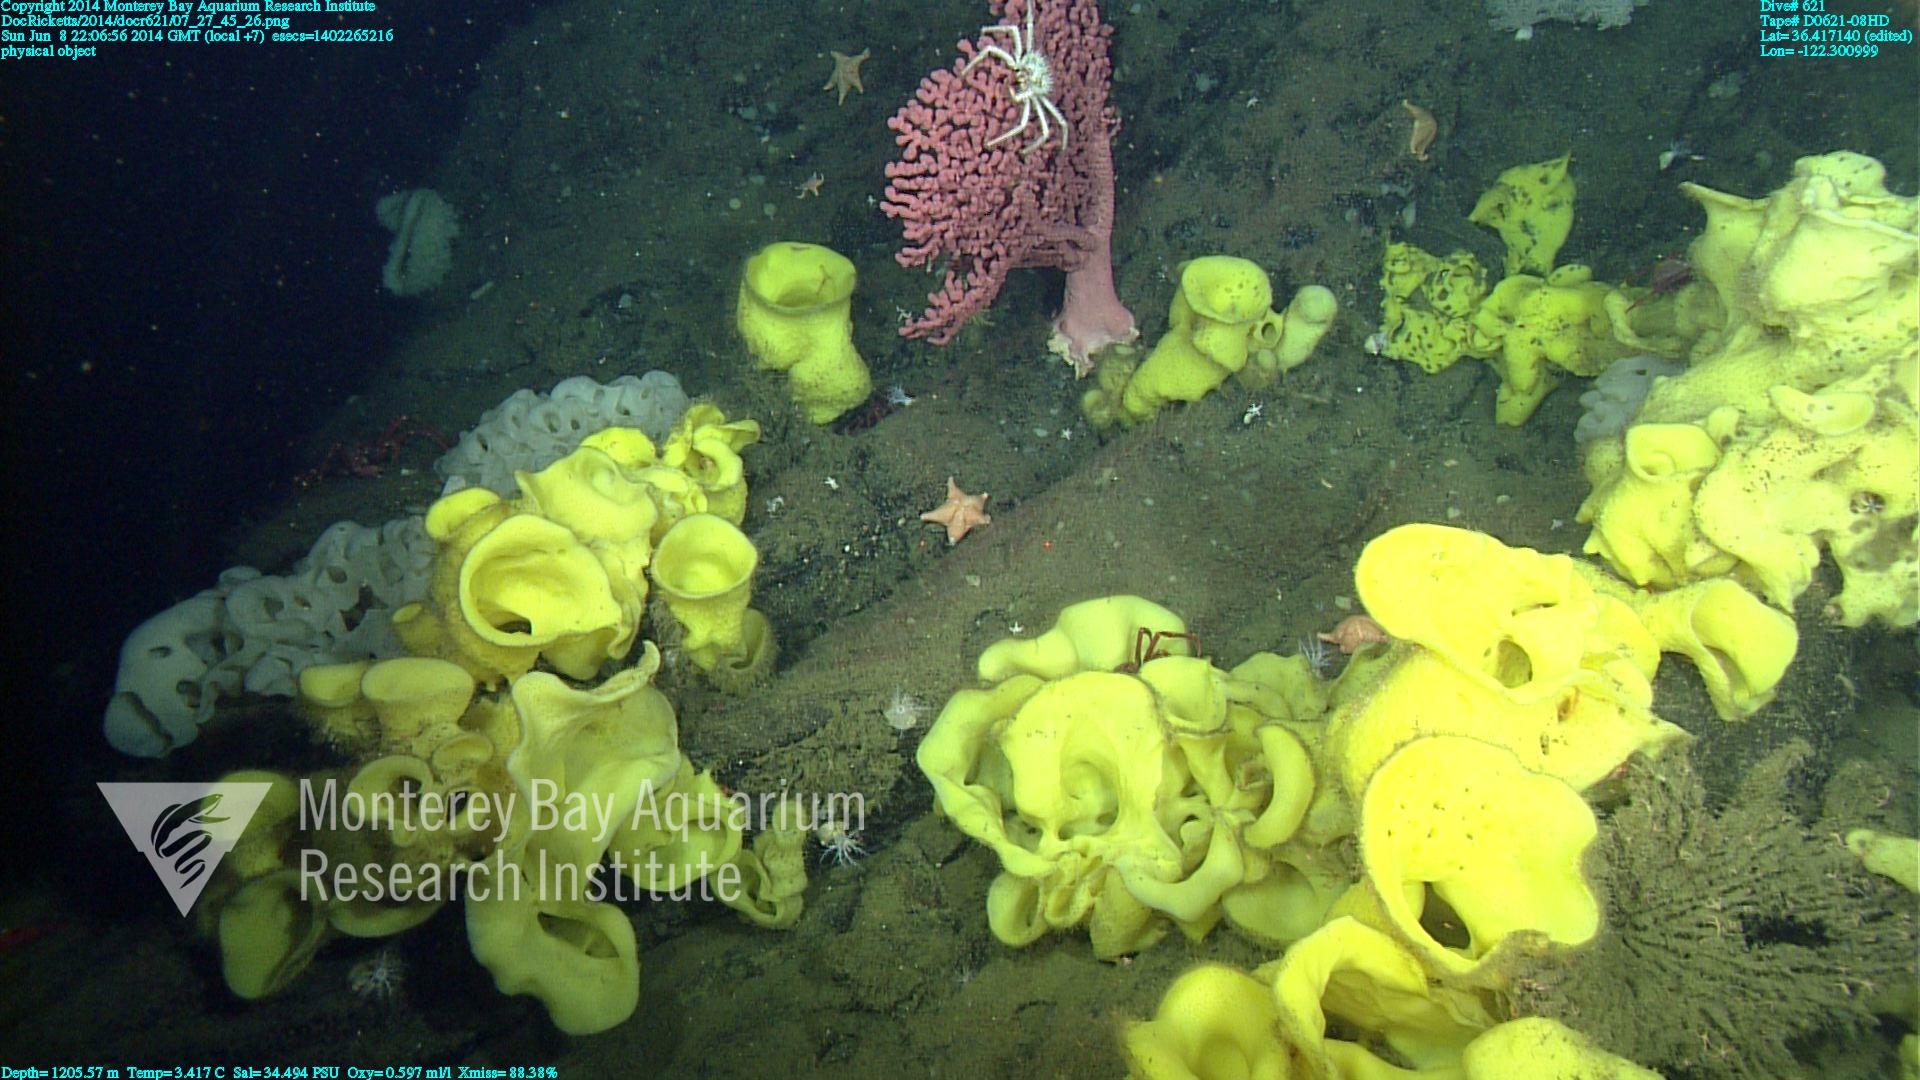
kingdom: Animalia
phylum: Cnidaria
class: Anthozoa
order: Scleralcyonacea
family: Coralliidae
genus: Paragorgia
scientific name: Paragorgia arborea
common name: Bubble gum coral
